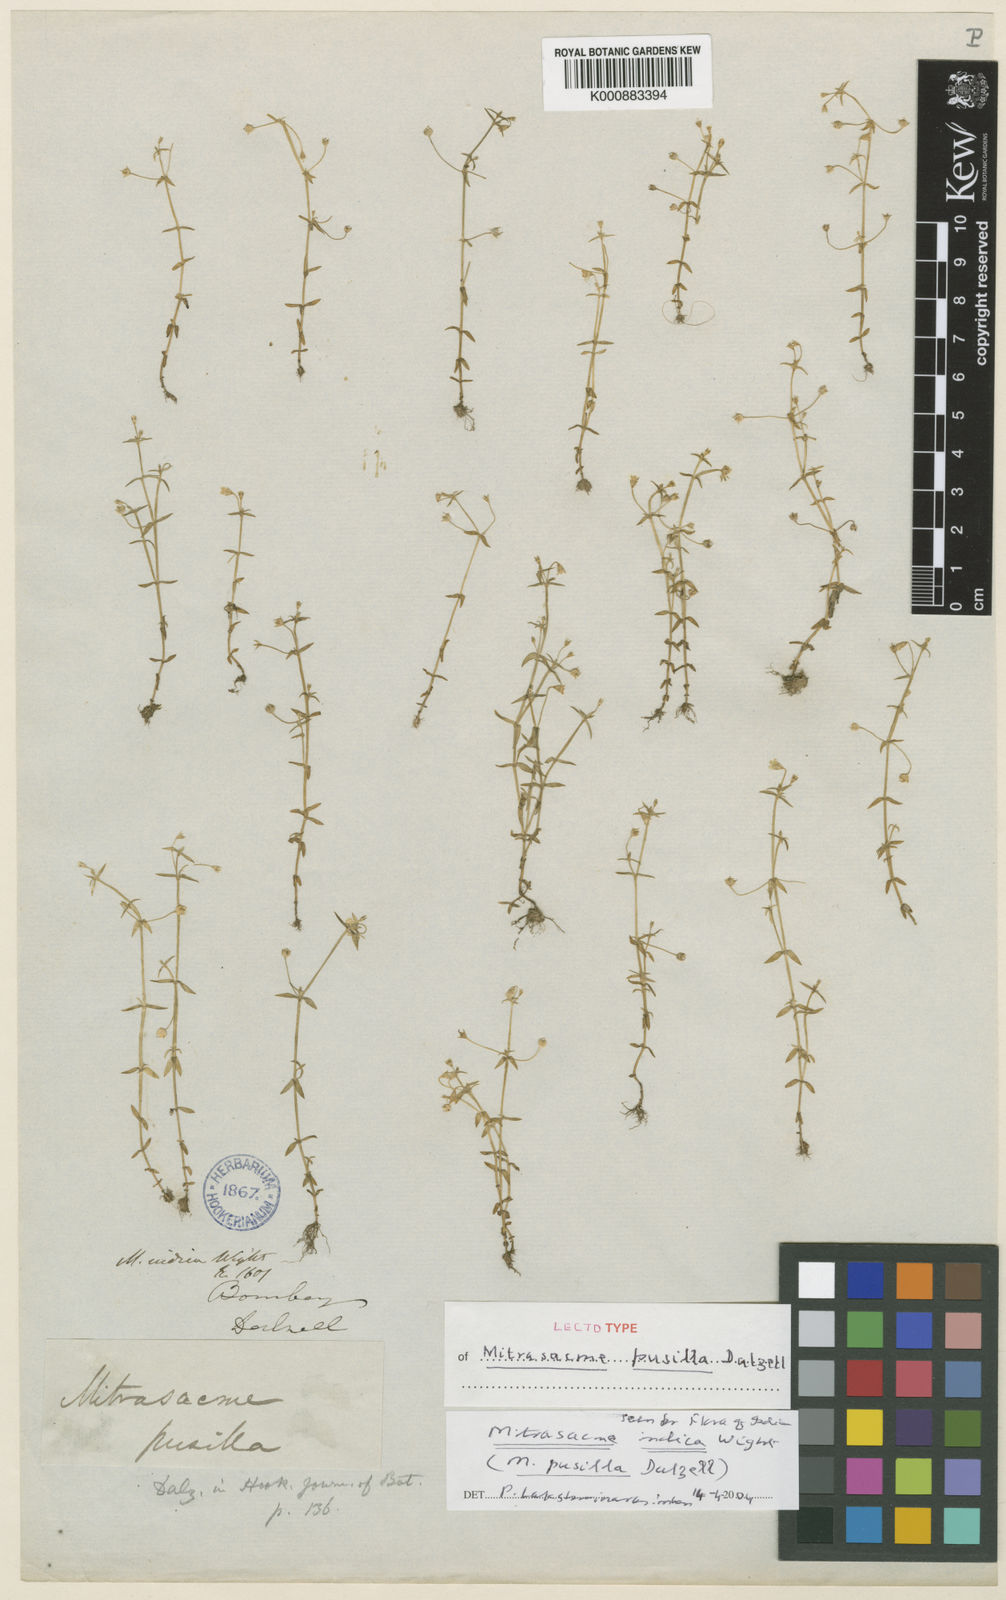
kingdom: Plantae
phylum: Tracheophyta
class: Magnoliopsida
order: Gentianales
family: Loganiaceae
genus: Mitrasacme
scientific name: Mitrasacme prolifera
